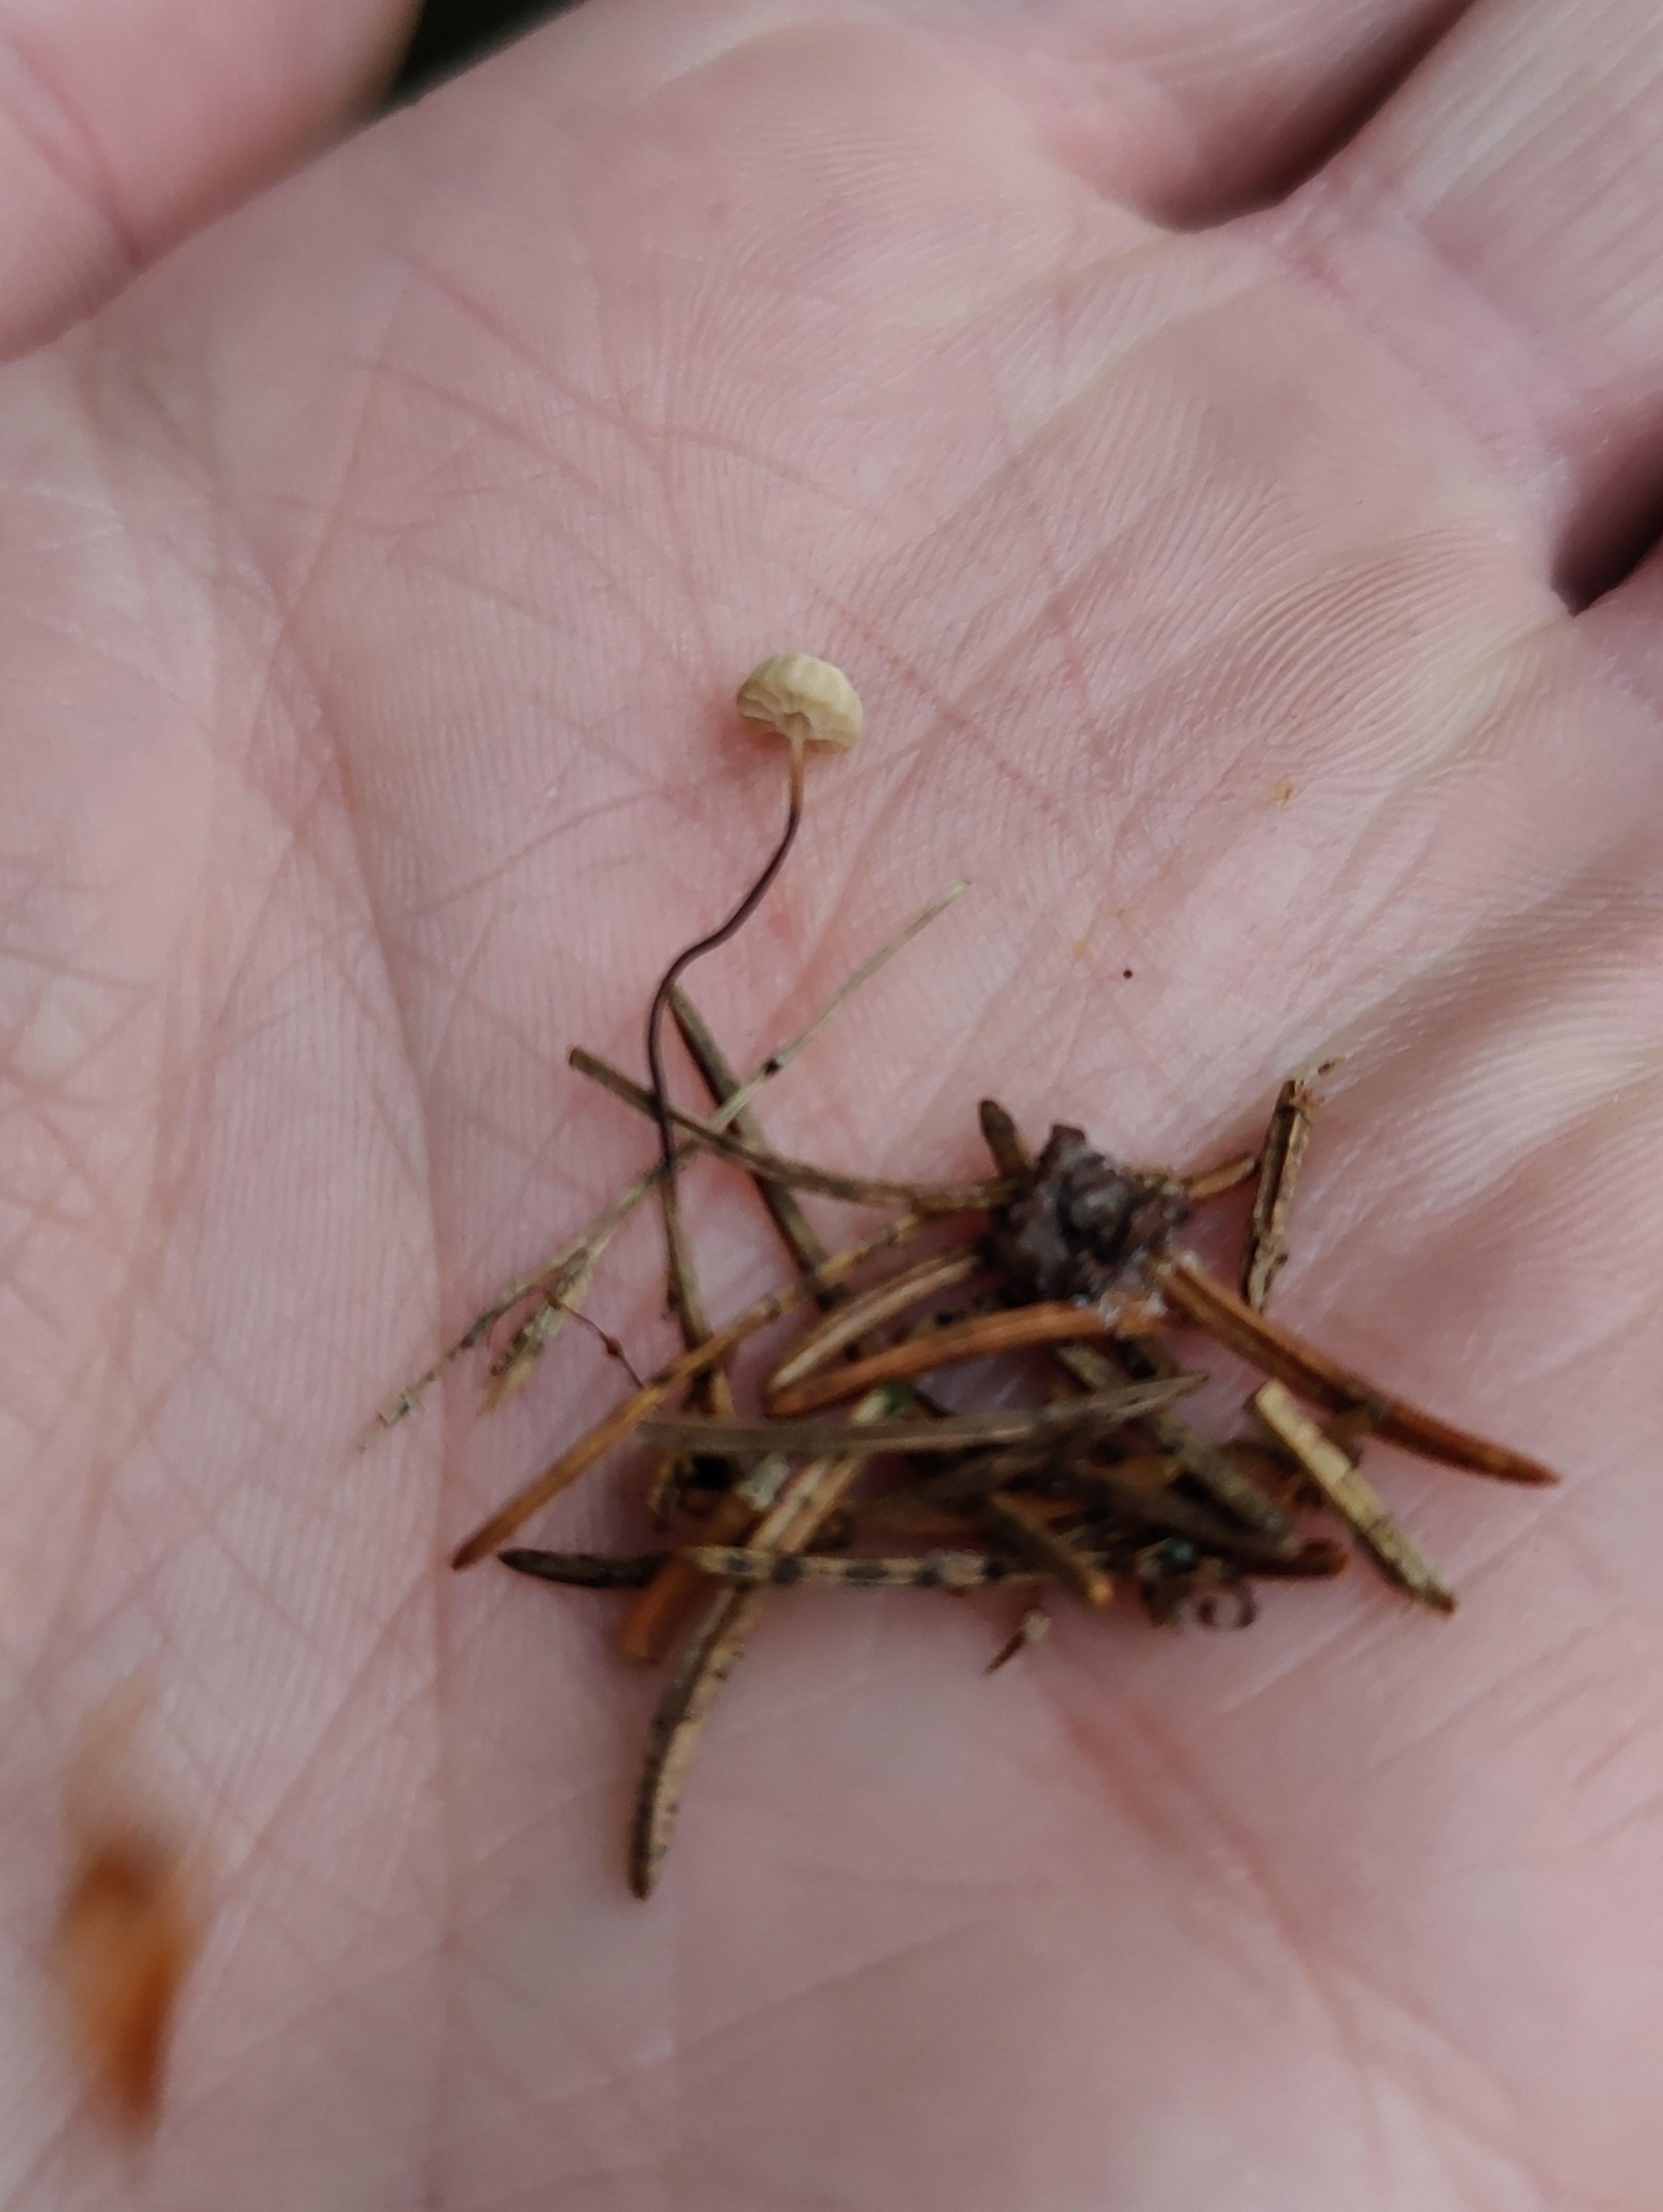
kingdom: Fungi
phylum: Basidiomycota
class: Agaricomycetes
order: Agaricales
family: Marasmiaceae
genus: Marasmius
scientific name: Marasmius wettsteinii
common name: Wettsteins bruskhat
